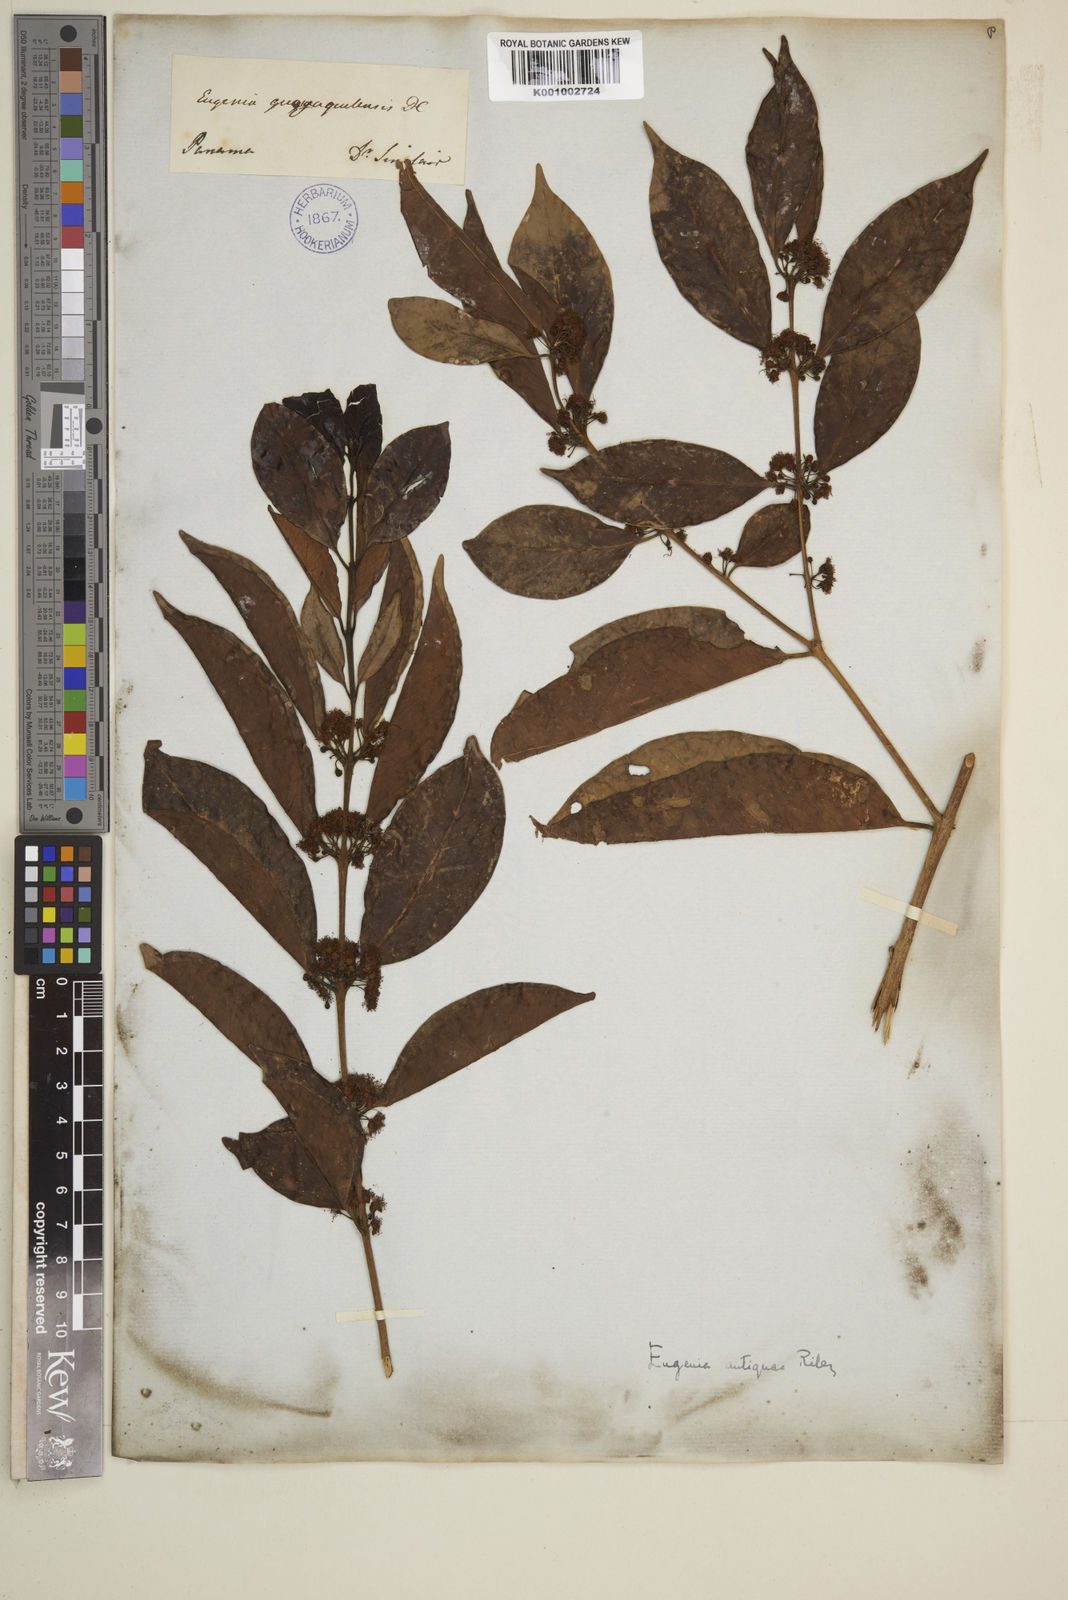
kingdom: Plantae
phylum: Tracheophyta
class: Magnoliopsida
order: Myrtales
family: Myrtaceae
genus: Eugenia
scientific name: Eugenia acapulcensis
